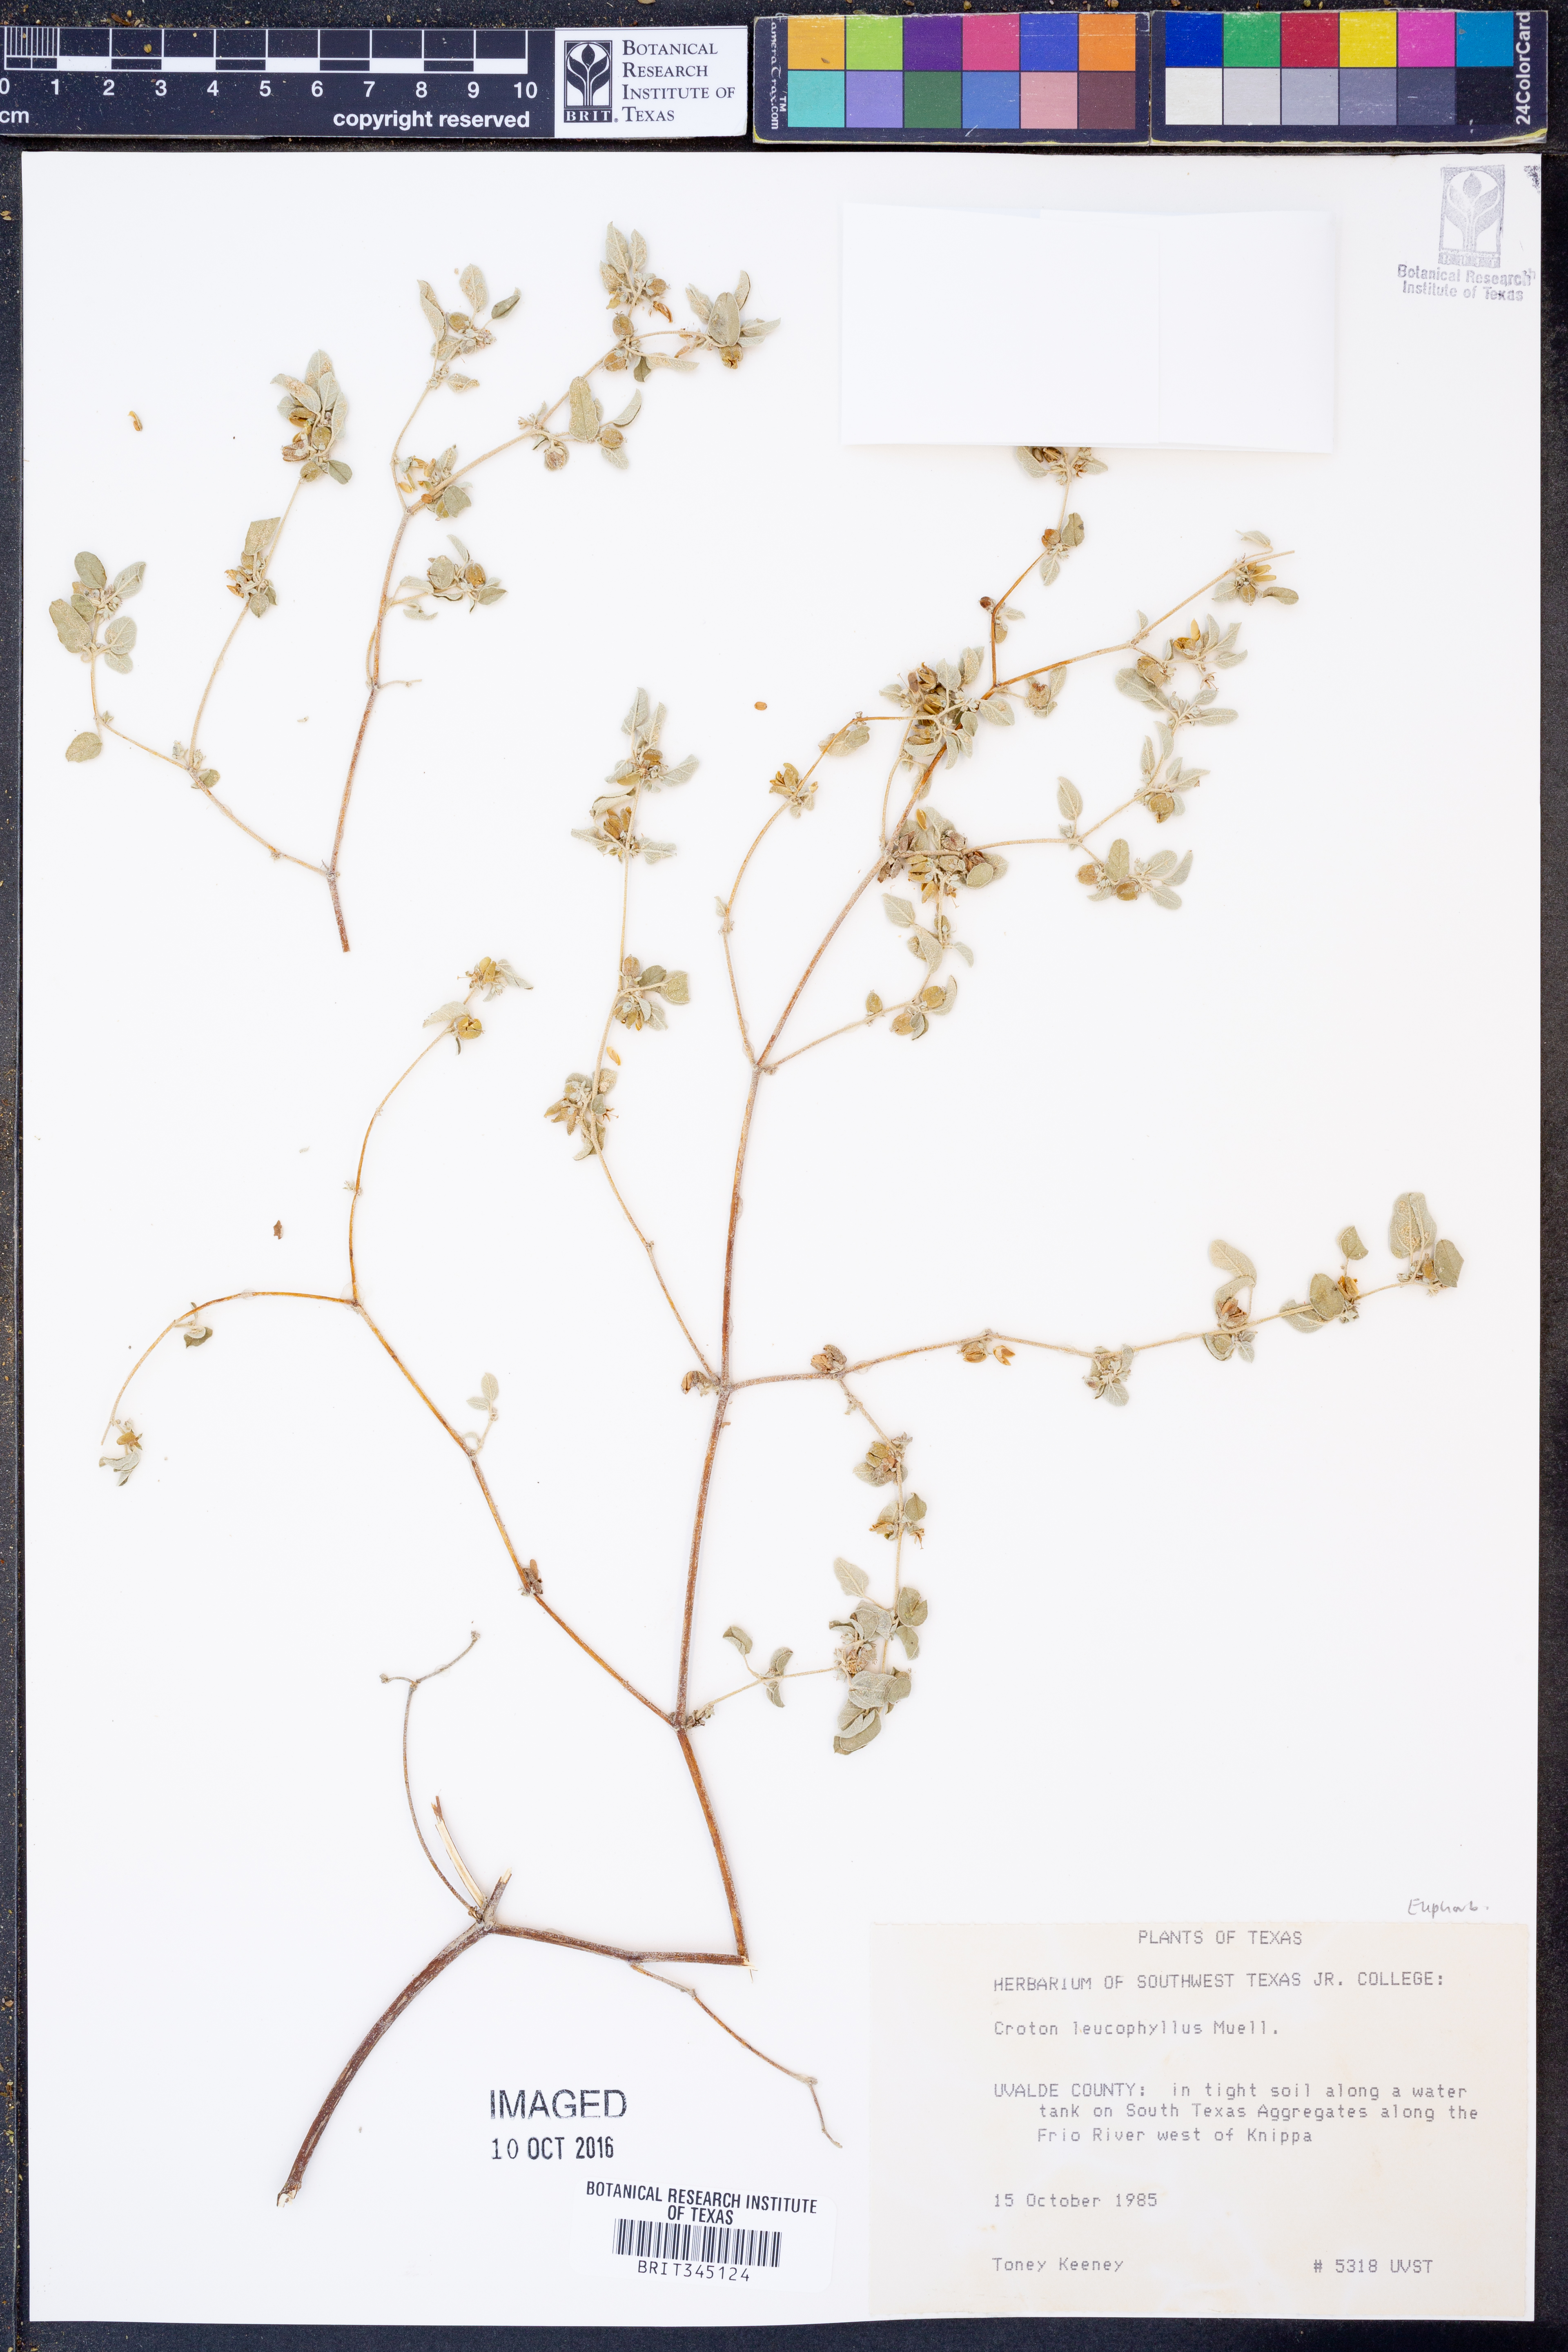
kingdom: Plantae
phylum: Tracheophyta
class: Magnoliopsida
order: Malpighiales
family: Euphorbiaceae
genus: Croton
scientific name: Croton leucophyllus
